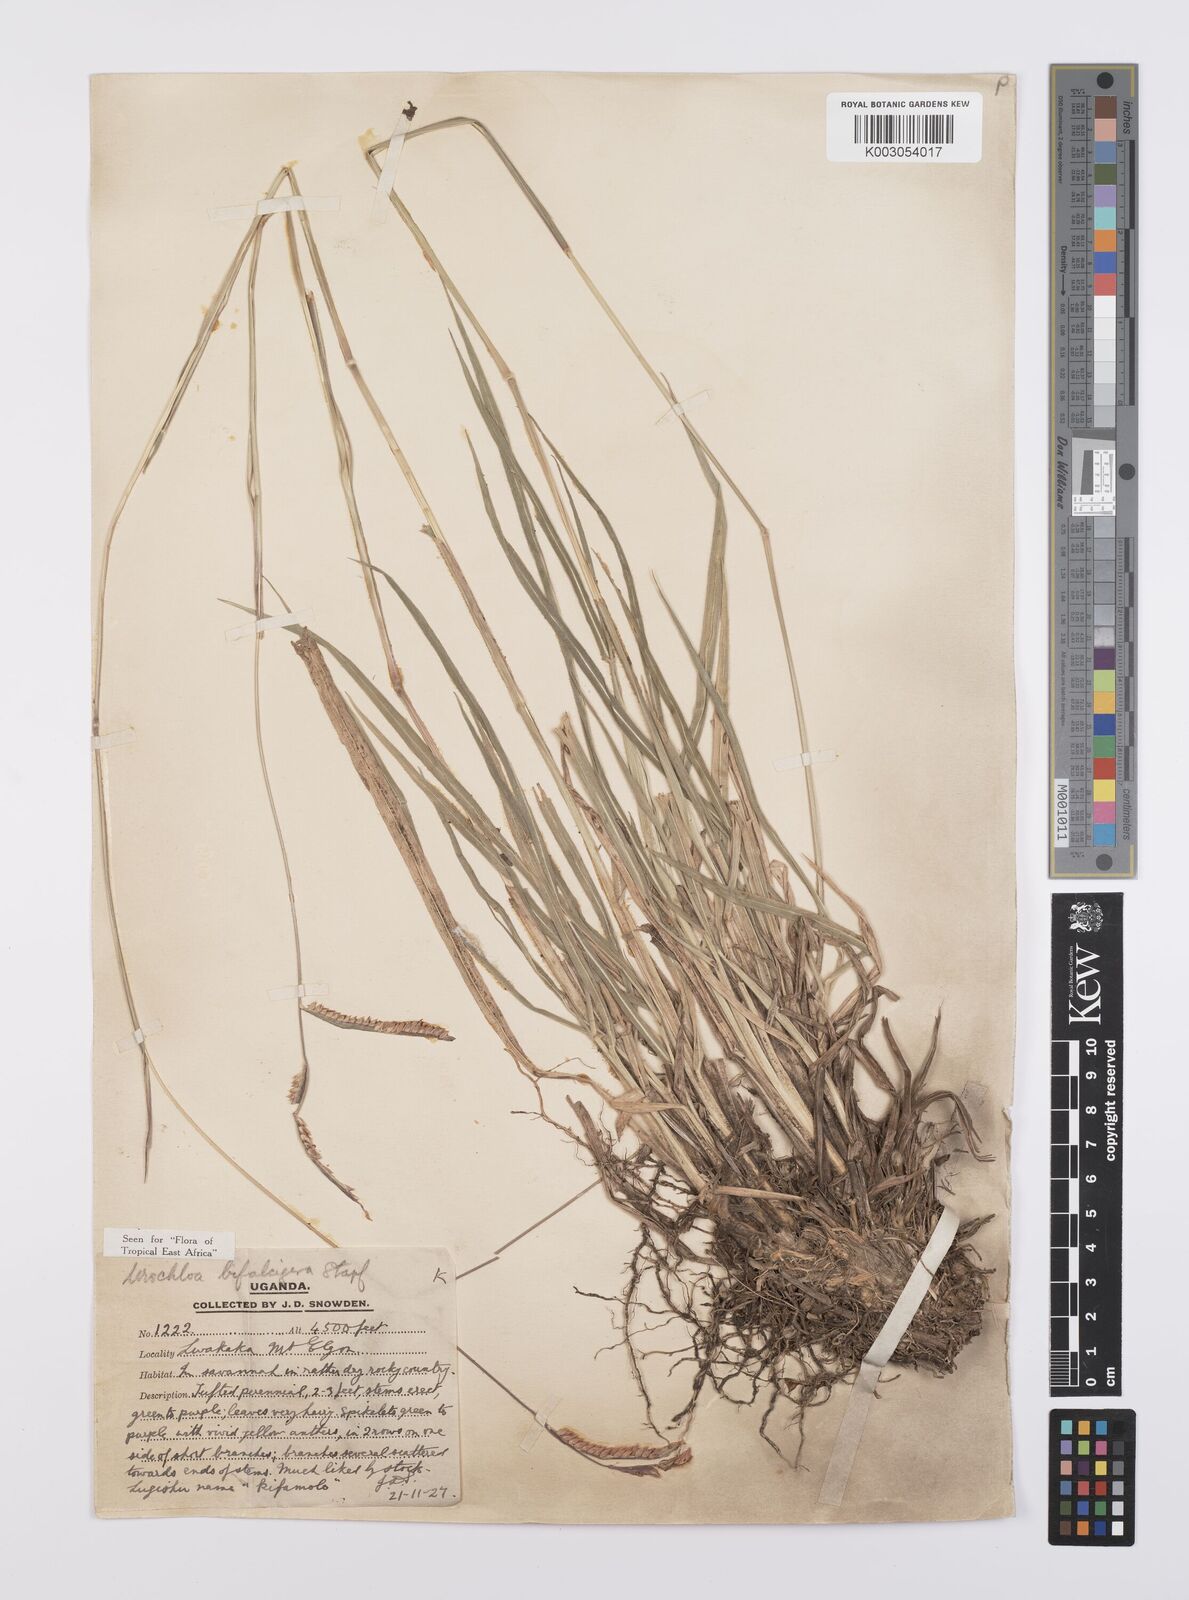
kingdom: Plantae
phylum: Tracheophyta
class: Liliopsida
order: Poales
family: Poaceae
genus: Urochloa
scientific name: Urochloa platynota
